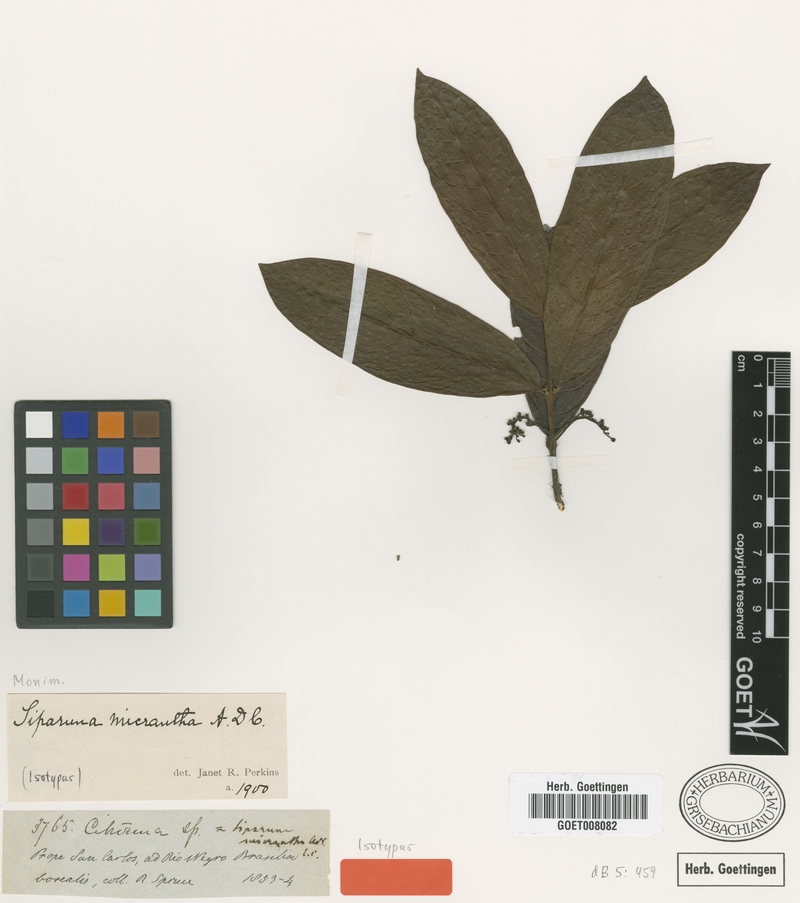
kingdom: Plantae
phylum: Tracheophyta
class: Magnoliopsida
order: Laurales
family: Siparunaceae
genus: Siparuna
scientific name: Siparuna reginae
